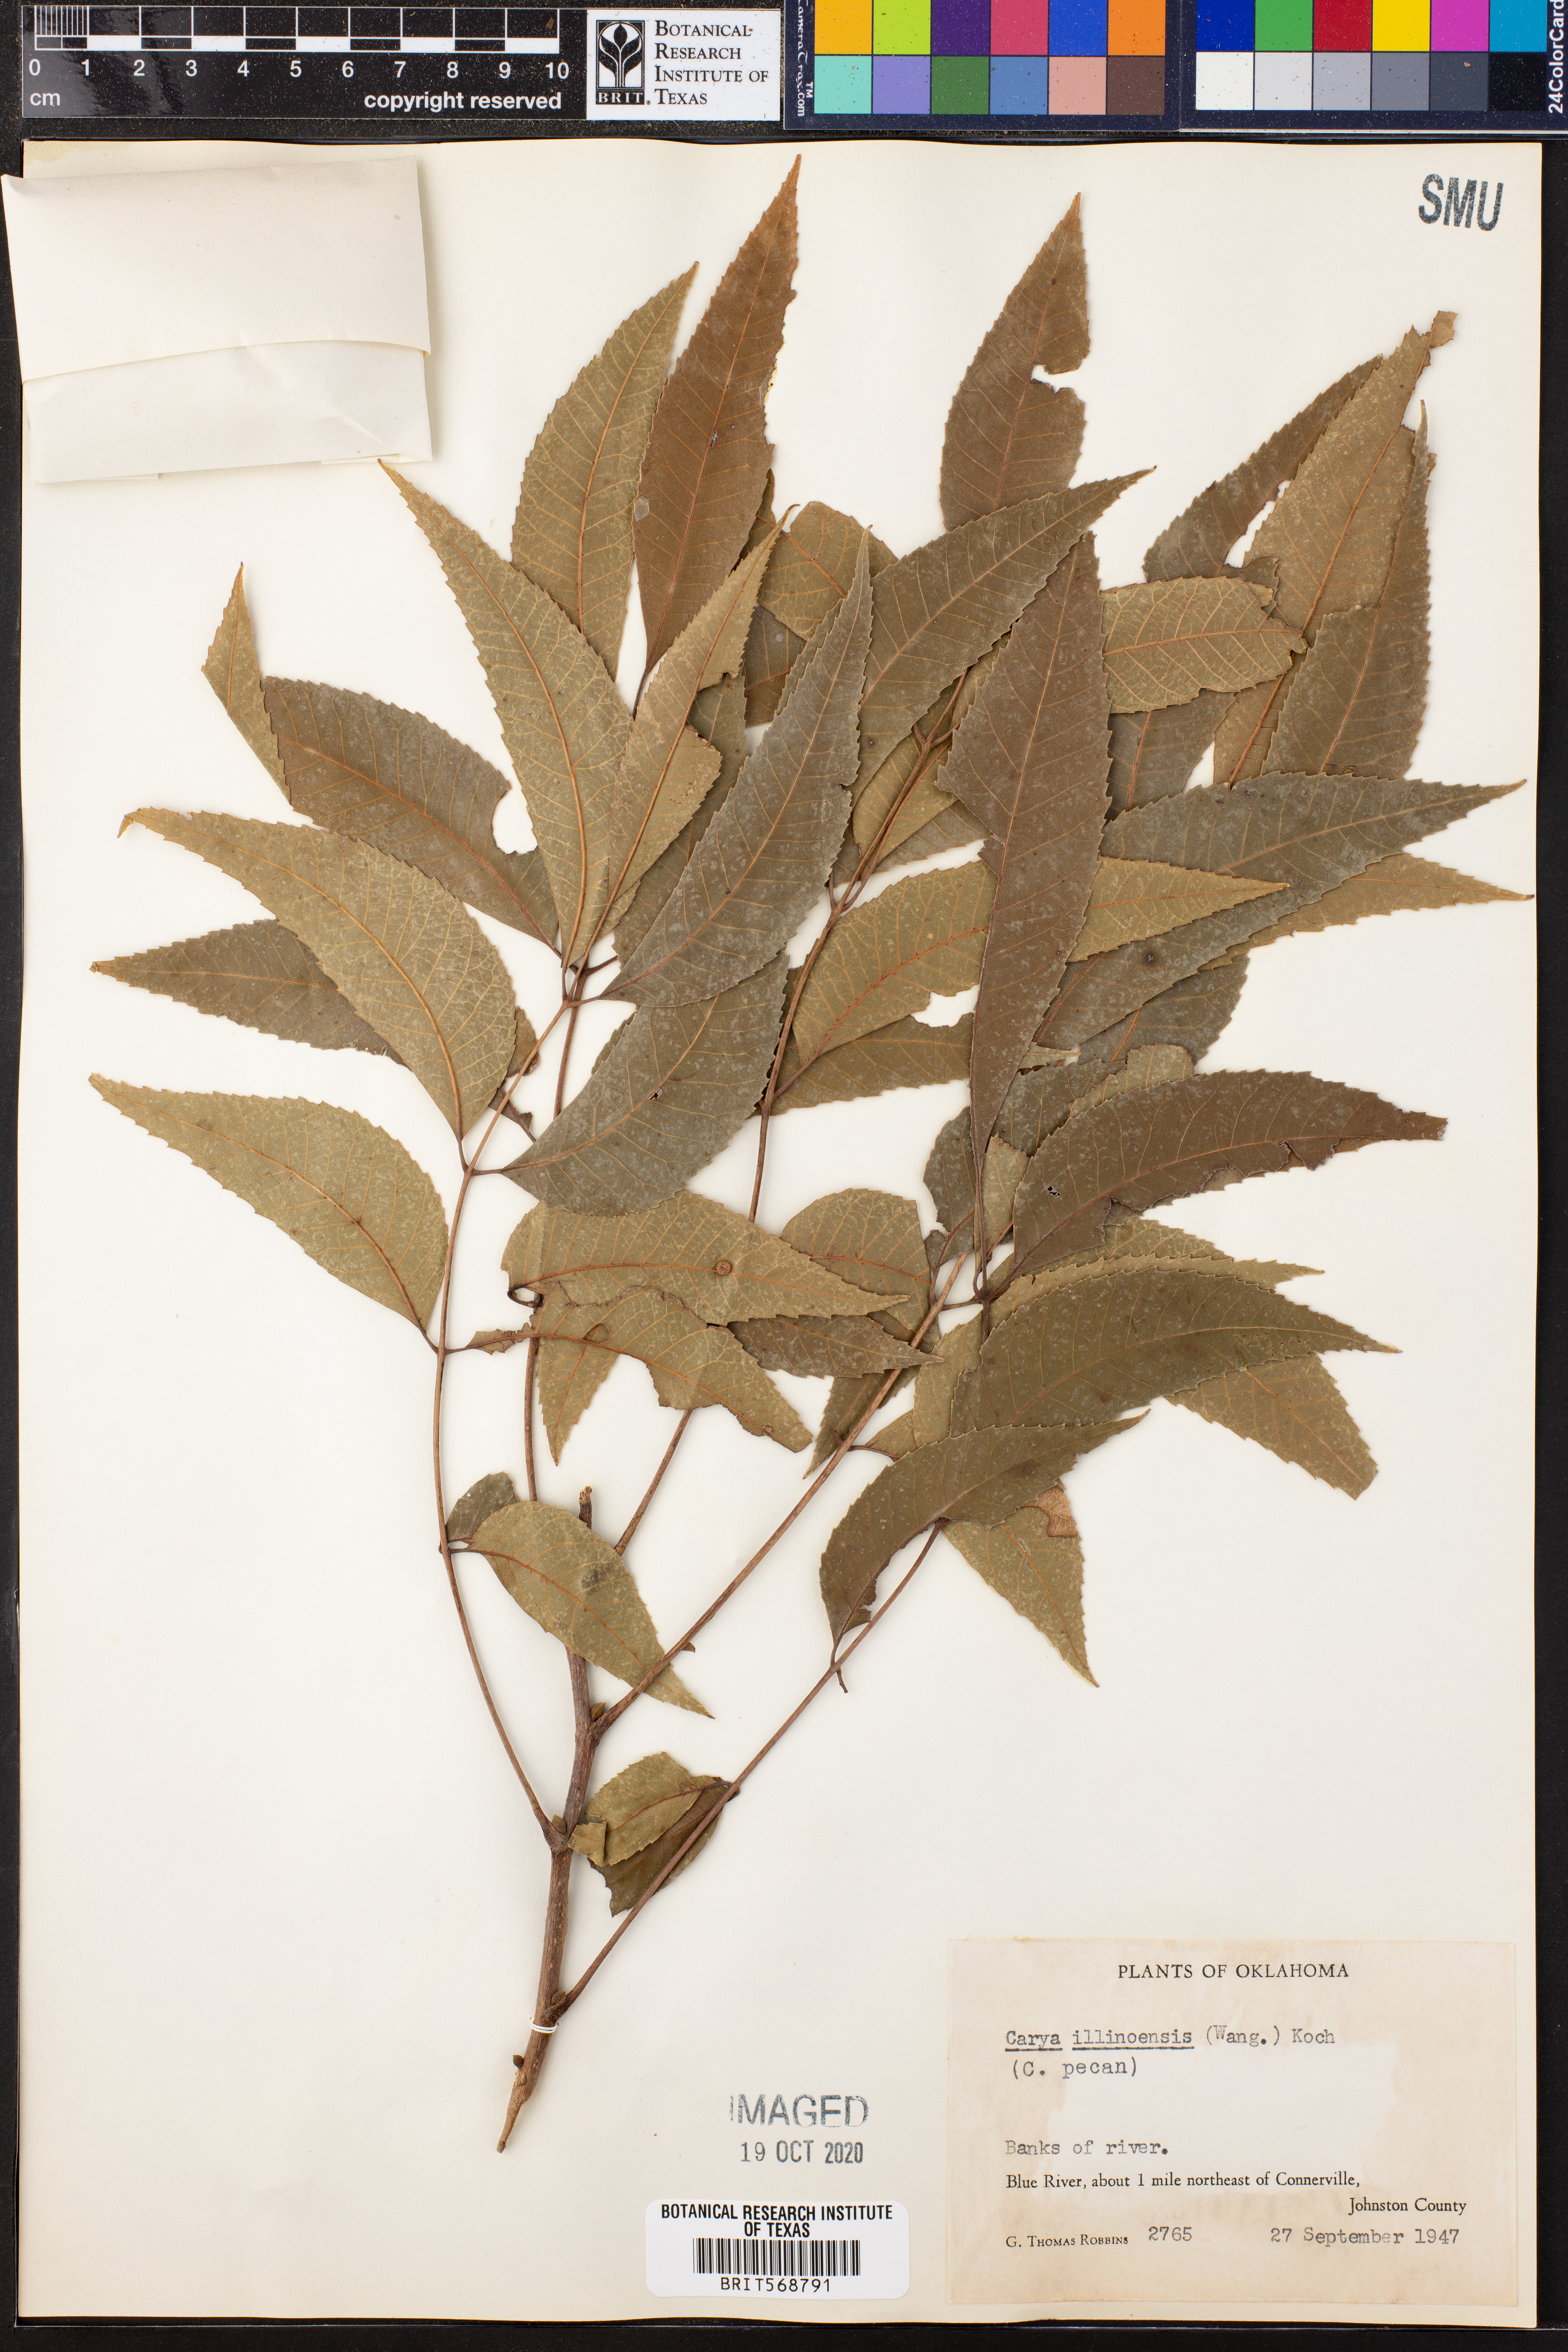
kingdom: Plantae
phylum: Tracheophyta
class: Magnoliopsida
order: Fagales
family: Juglandaceae
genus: Carya
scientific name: Carya
